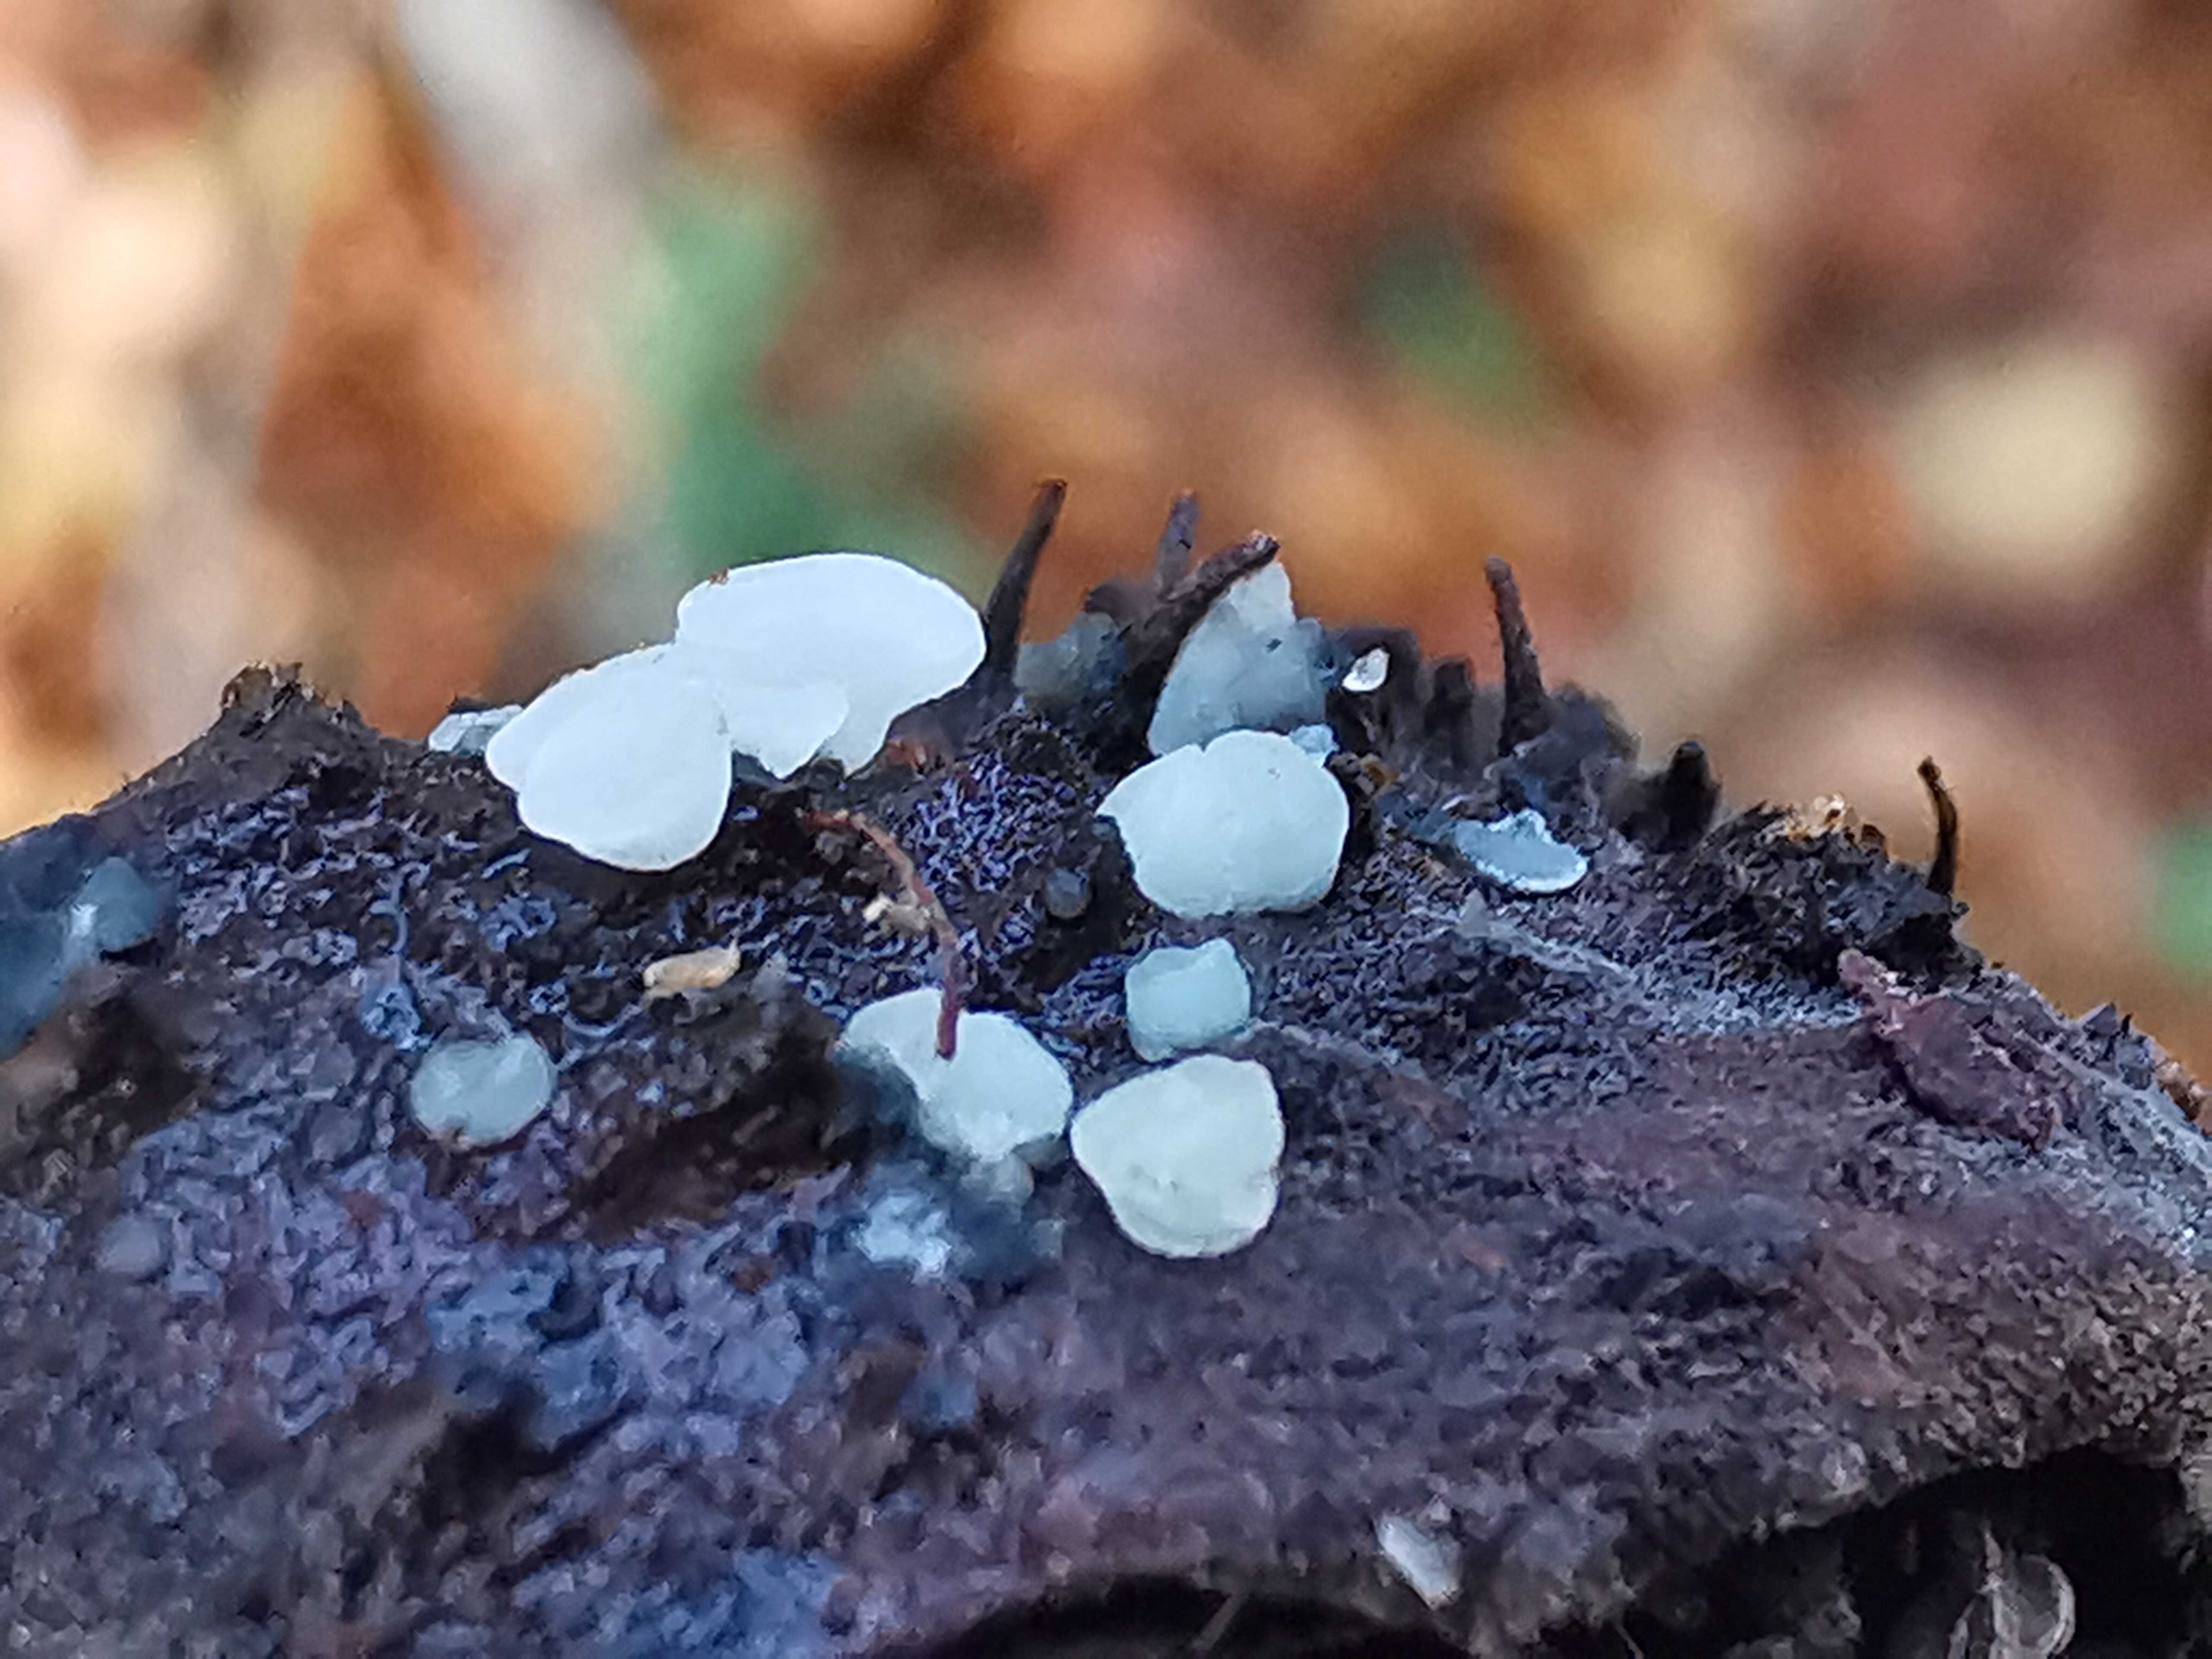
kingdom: Fungi
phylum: Ascomycota
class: Leotiomycetes
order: Helotiales
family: Helotiaceae
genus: Hymenoscyphus
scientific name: Hymenoscyphus fagineus
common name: vellugtende stilkskive
